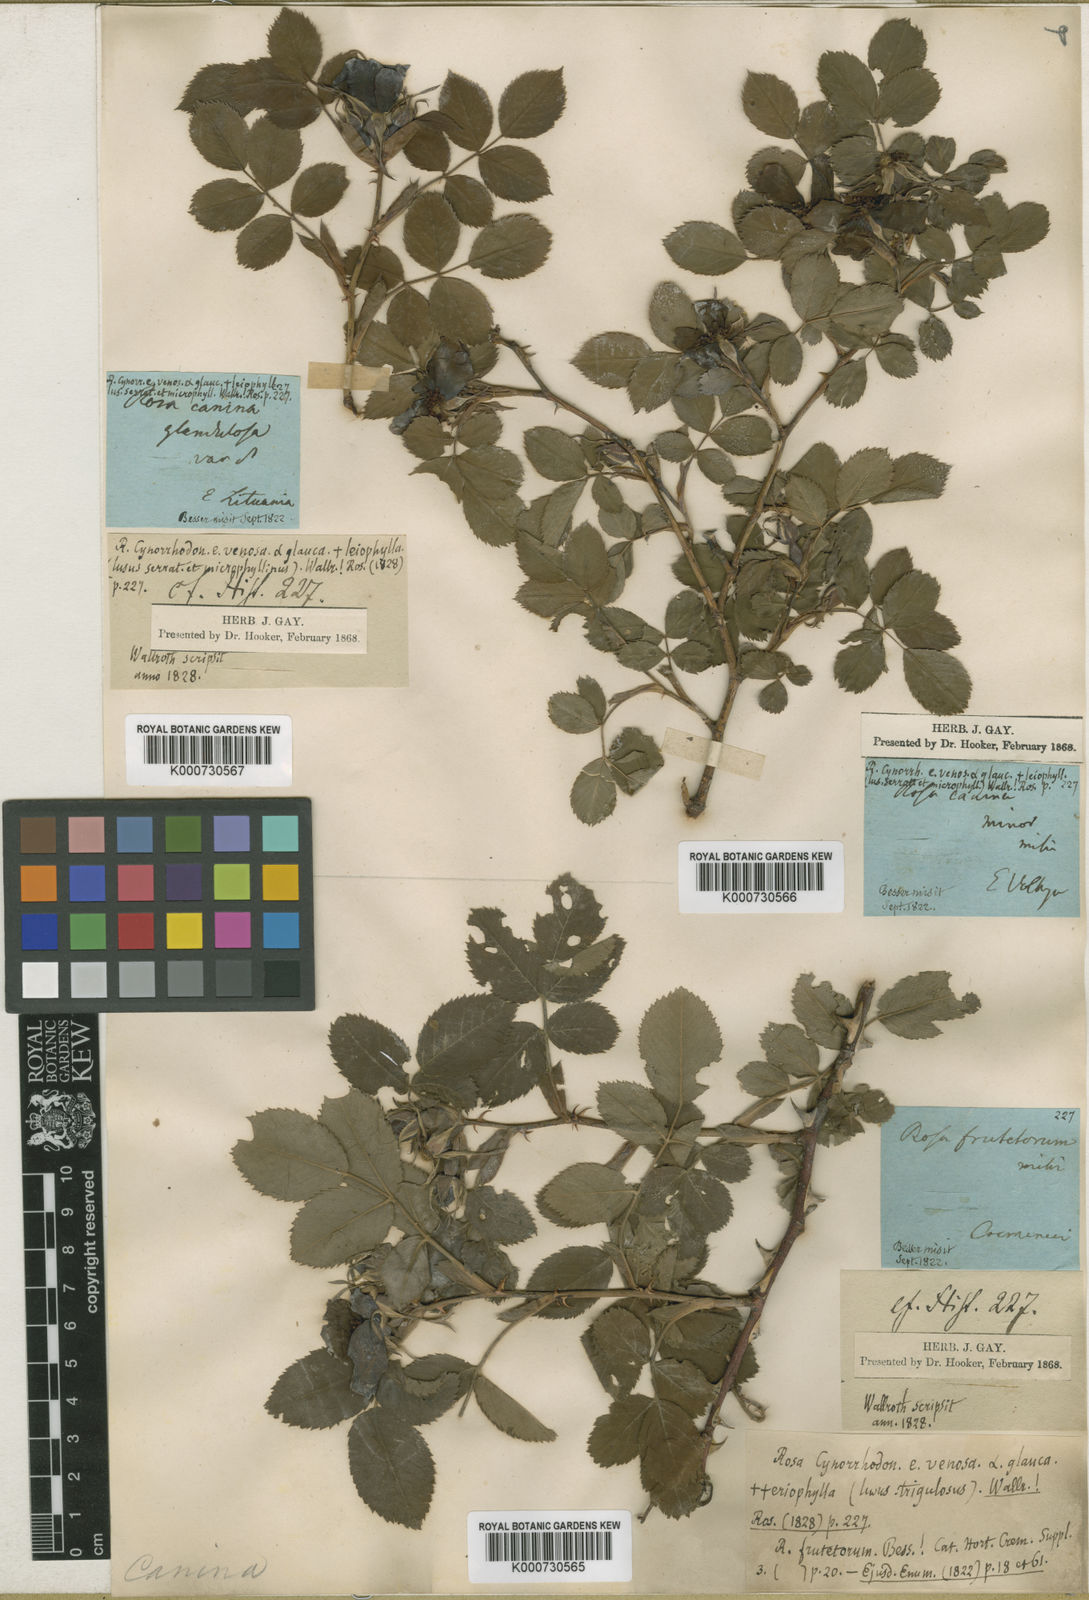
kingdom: Plantae
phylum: Tracheophyta
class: Magnoliopsida
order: Rosales
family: Rosaceae
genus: Rosa
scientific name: Rosa canina
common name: Dog rose
